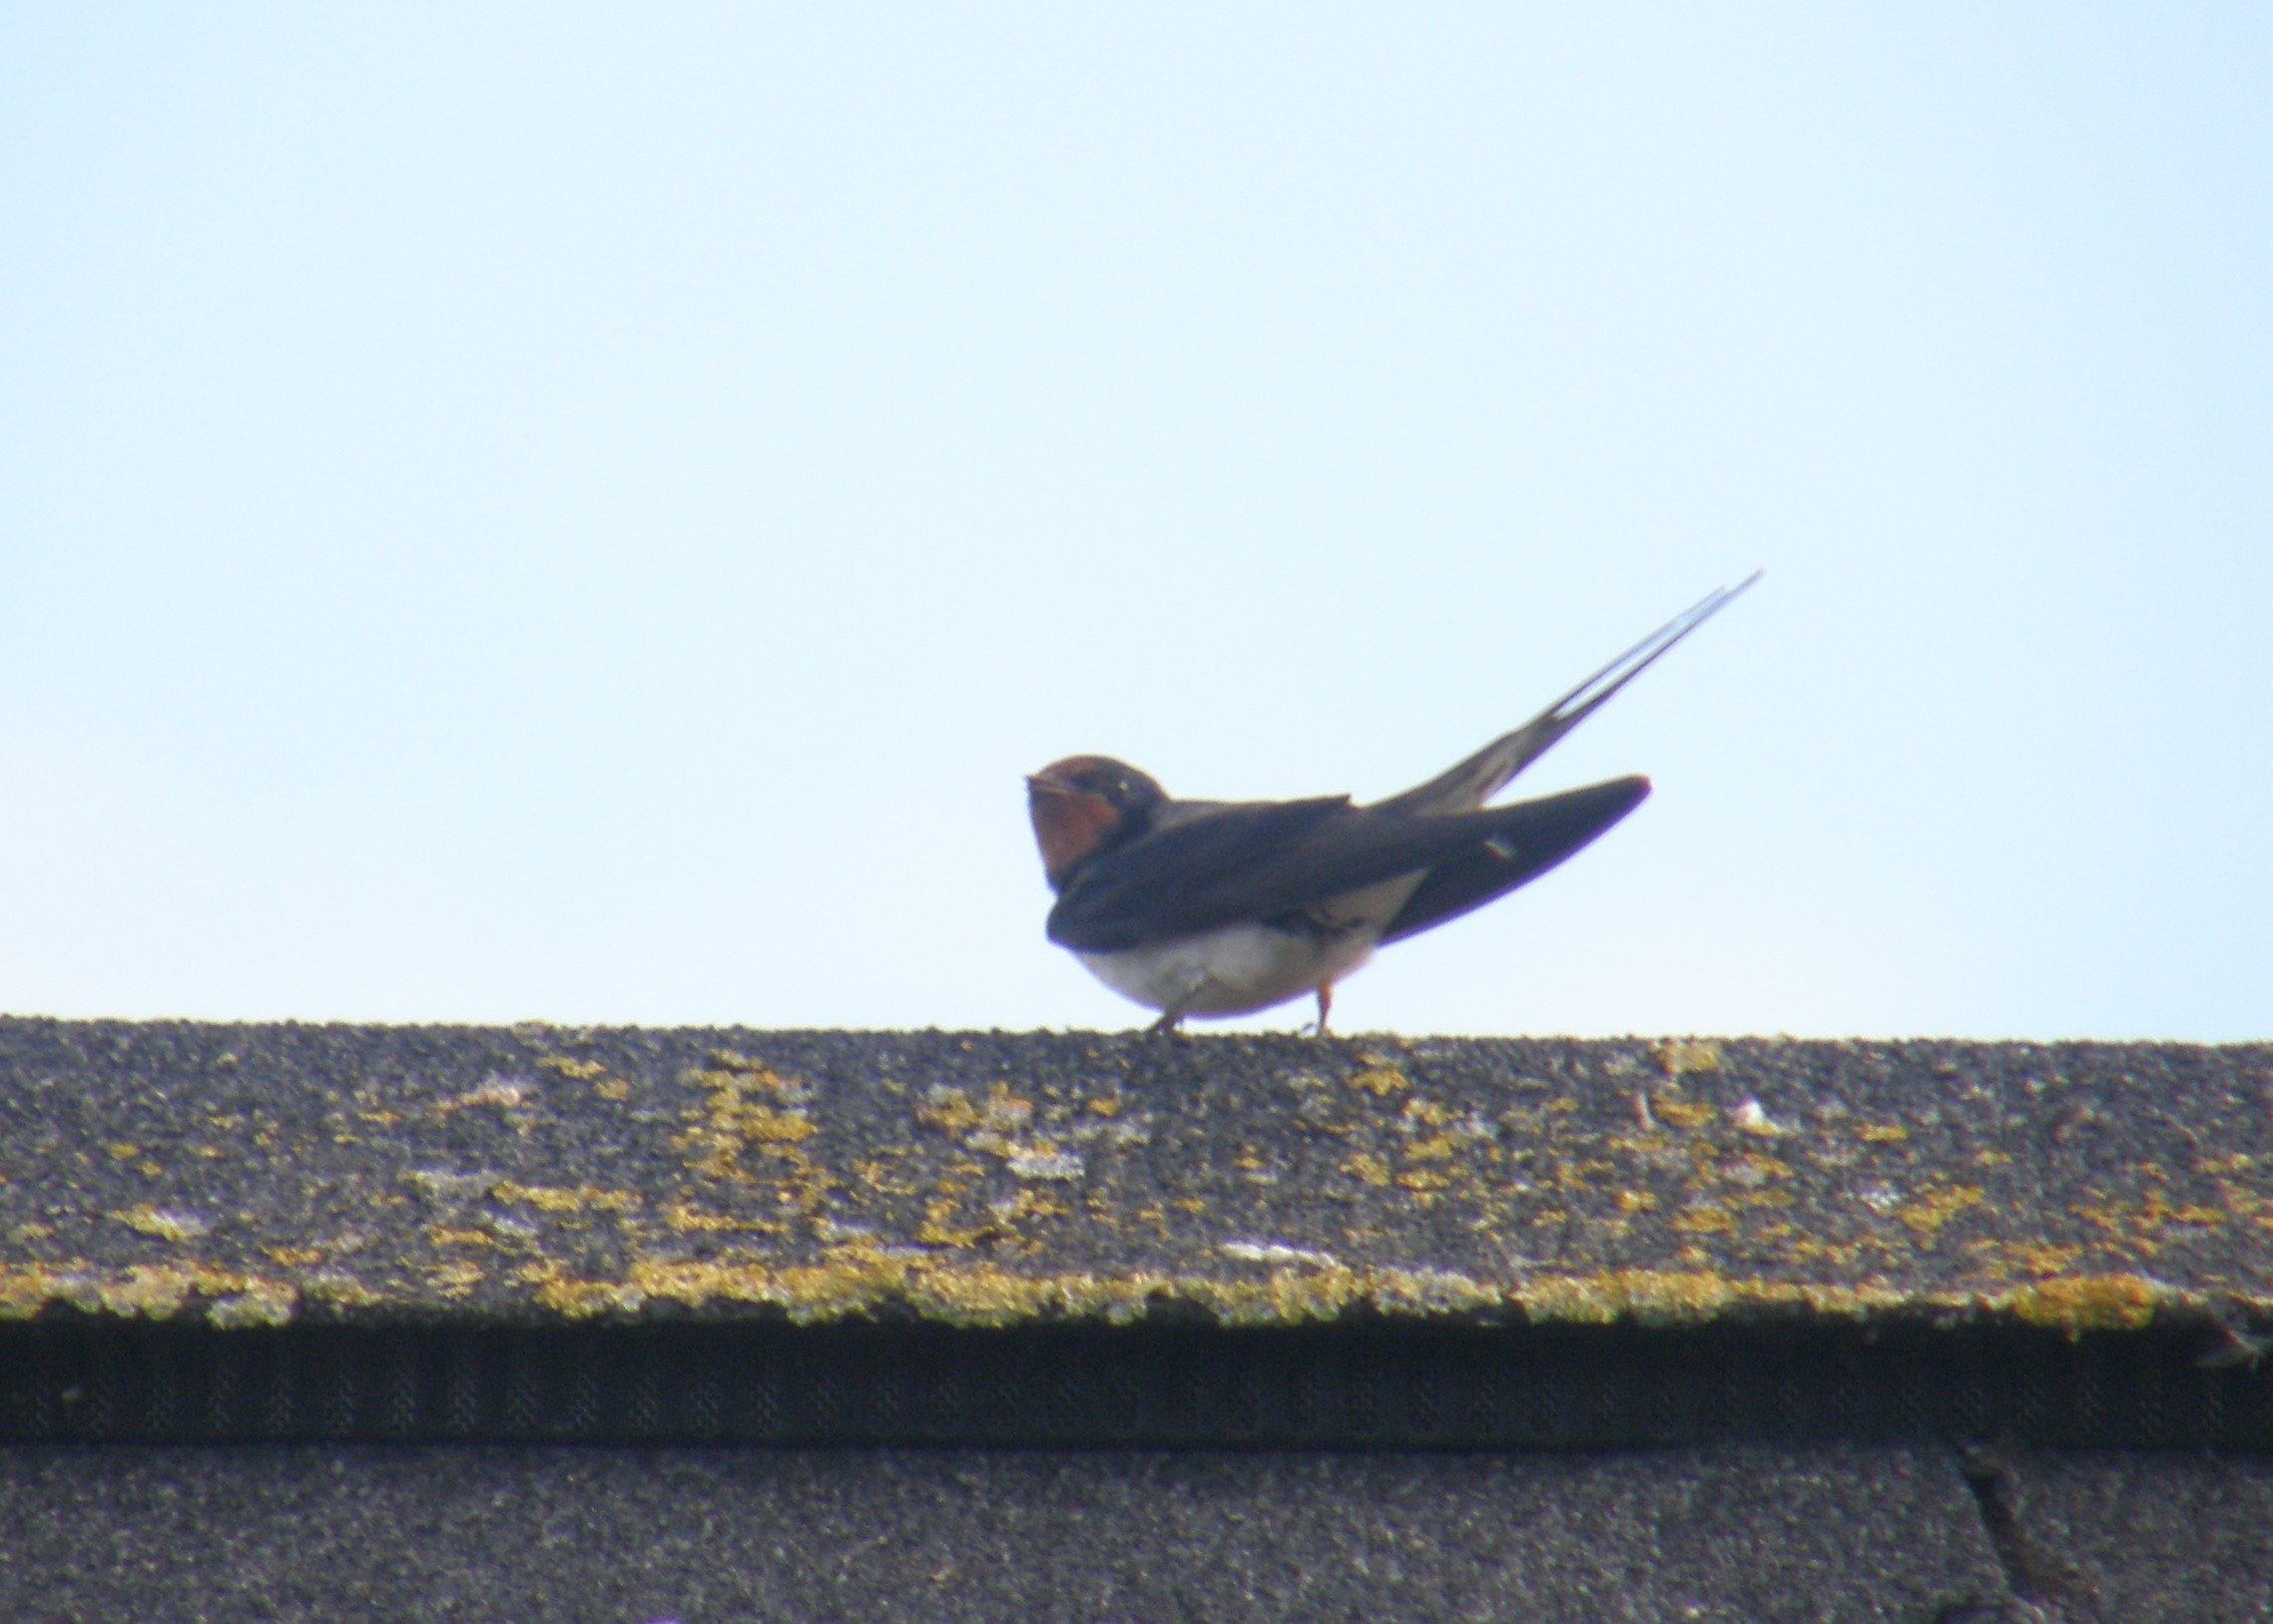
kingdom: Animalia
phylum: Chordata
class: Aves
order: Passeriformes
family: Hirundinidae
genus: Hirundo
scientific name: Hirundo rustica
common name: Landsvale
